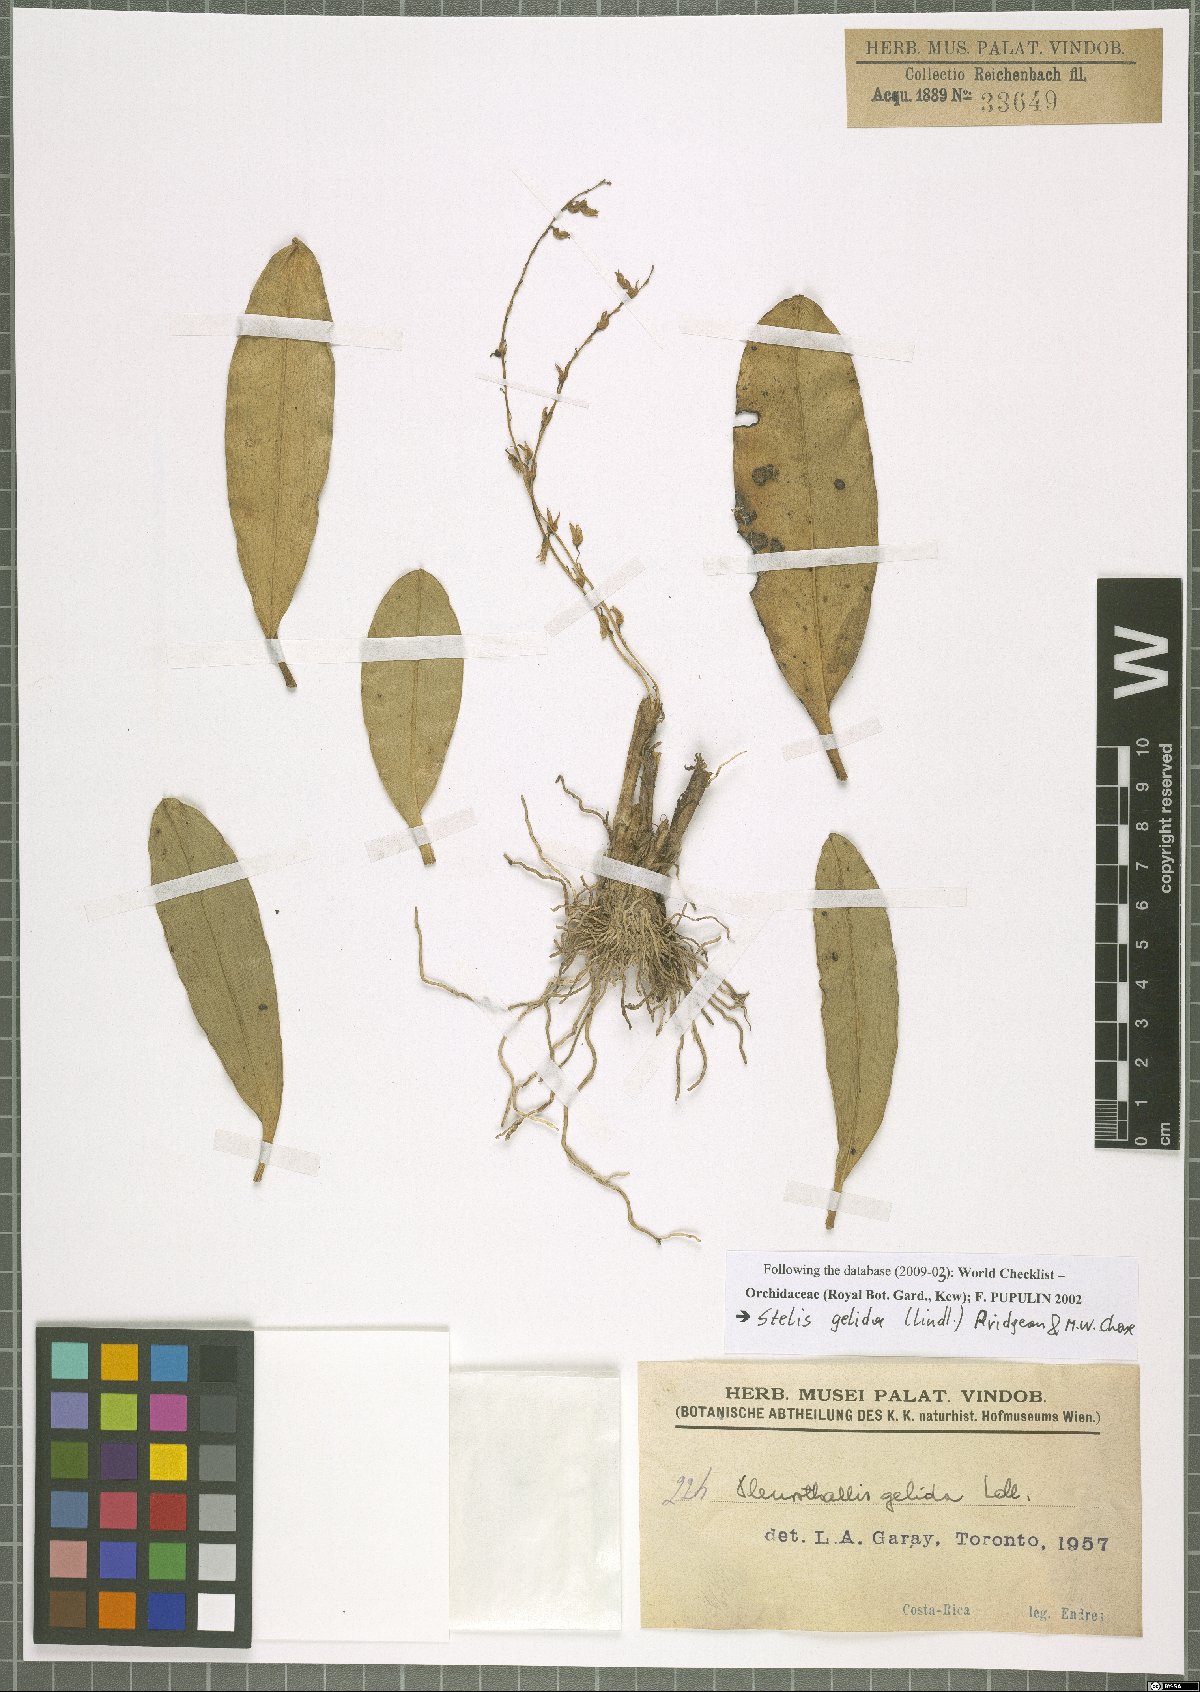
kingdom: Plantae
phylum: Tracheophyta
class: Liliopsida
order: Asparagales
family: Orchidaceae
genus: Stelis
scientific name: Stelis gelida
